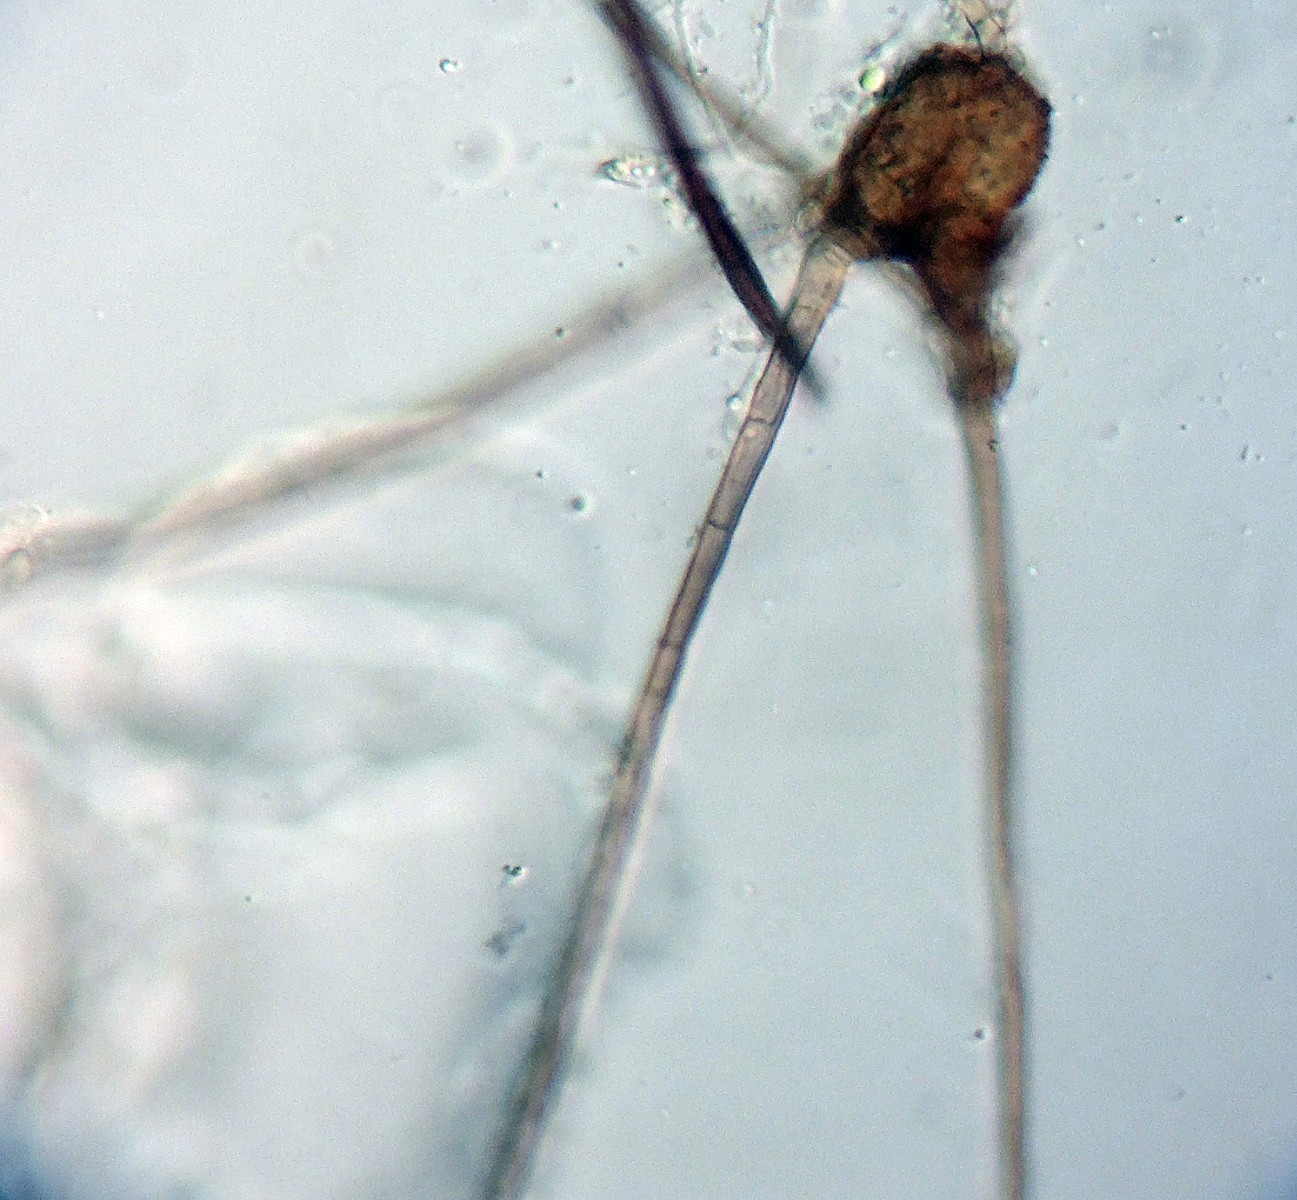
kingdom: Fungi
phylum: Ascomycota
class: Dothideomycetes
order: Pleosporales
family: Tetraplosphaeriaceae
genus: Tetraploa
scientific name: Tetraploa aristata
